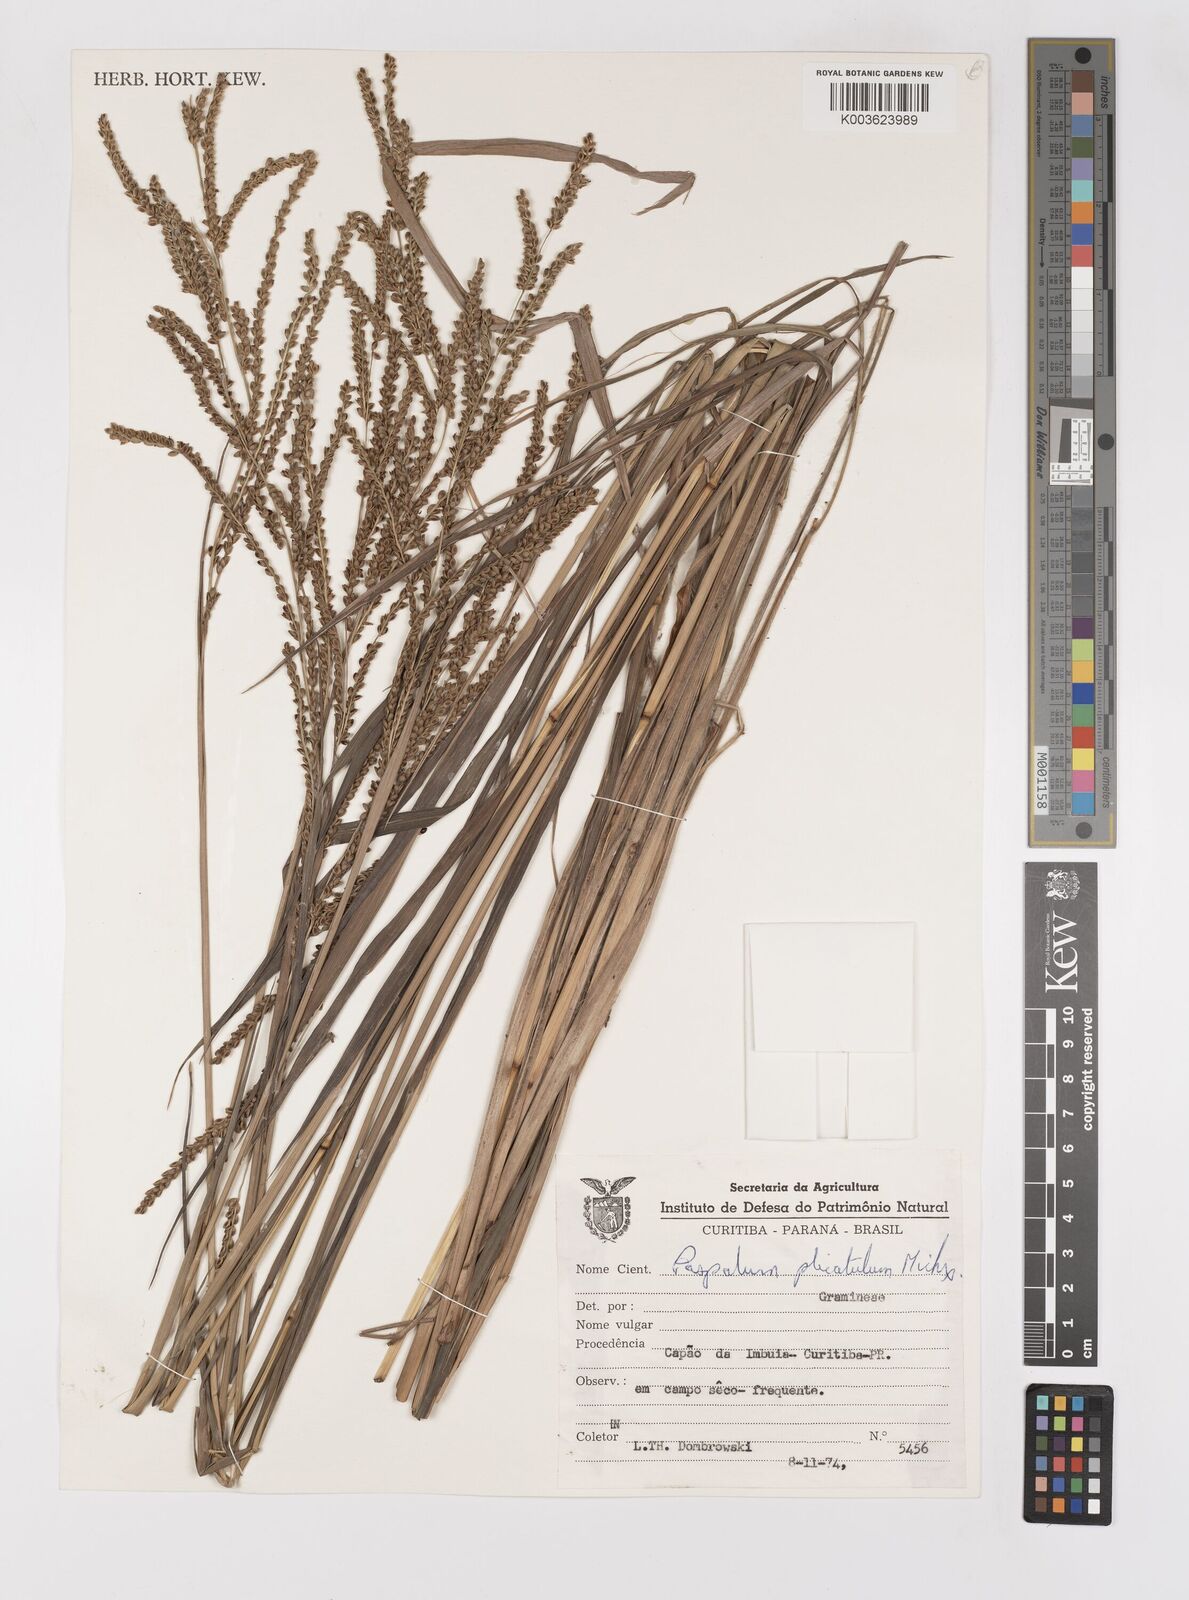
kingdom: Plantae
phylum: Tracheophyta
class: Liliopsida
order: Poales
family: Poaceae
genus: Paspalum
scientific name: Paspalum glaucescens
